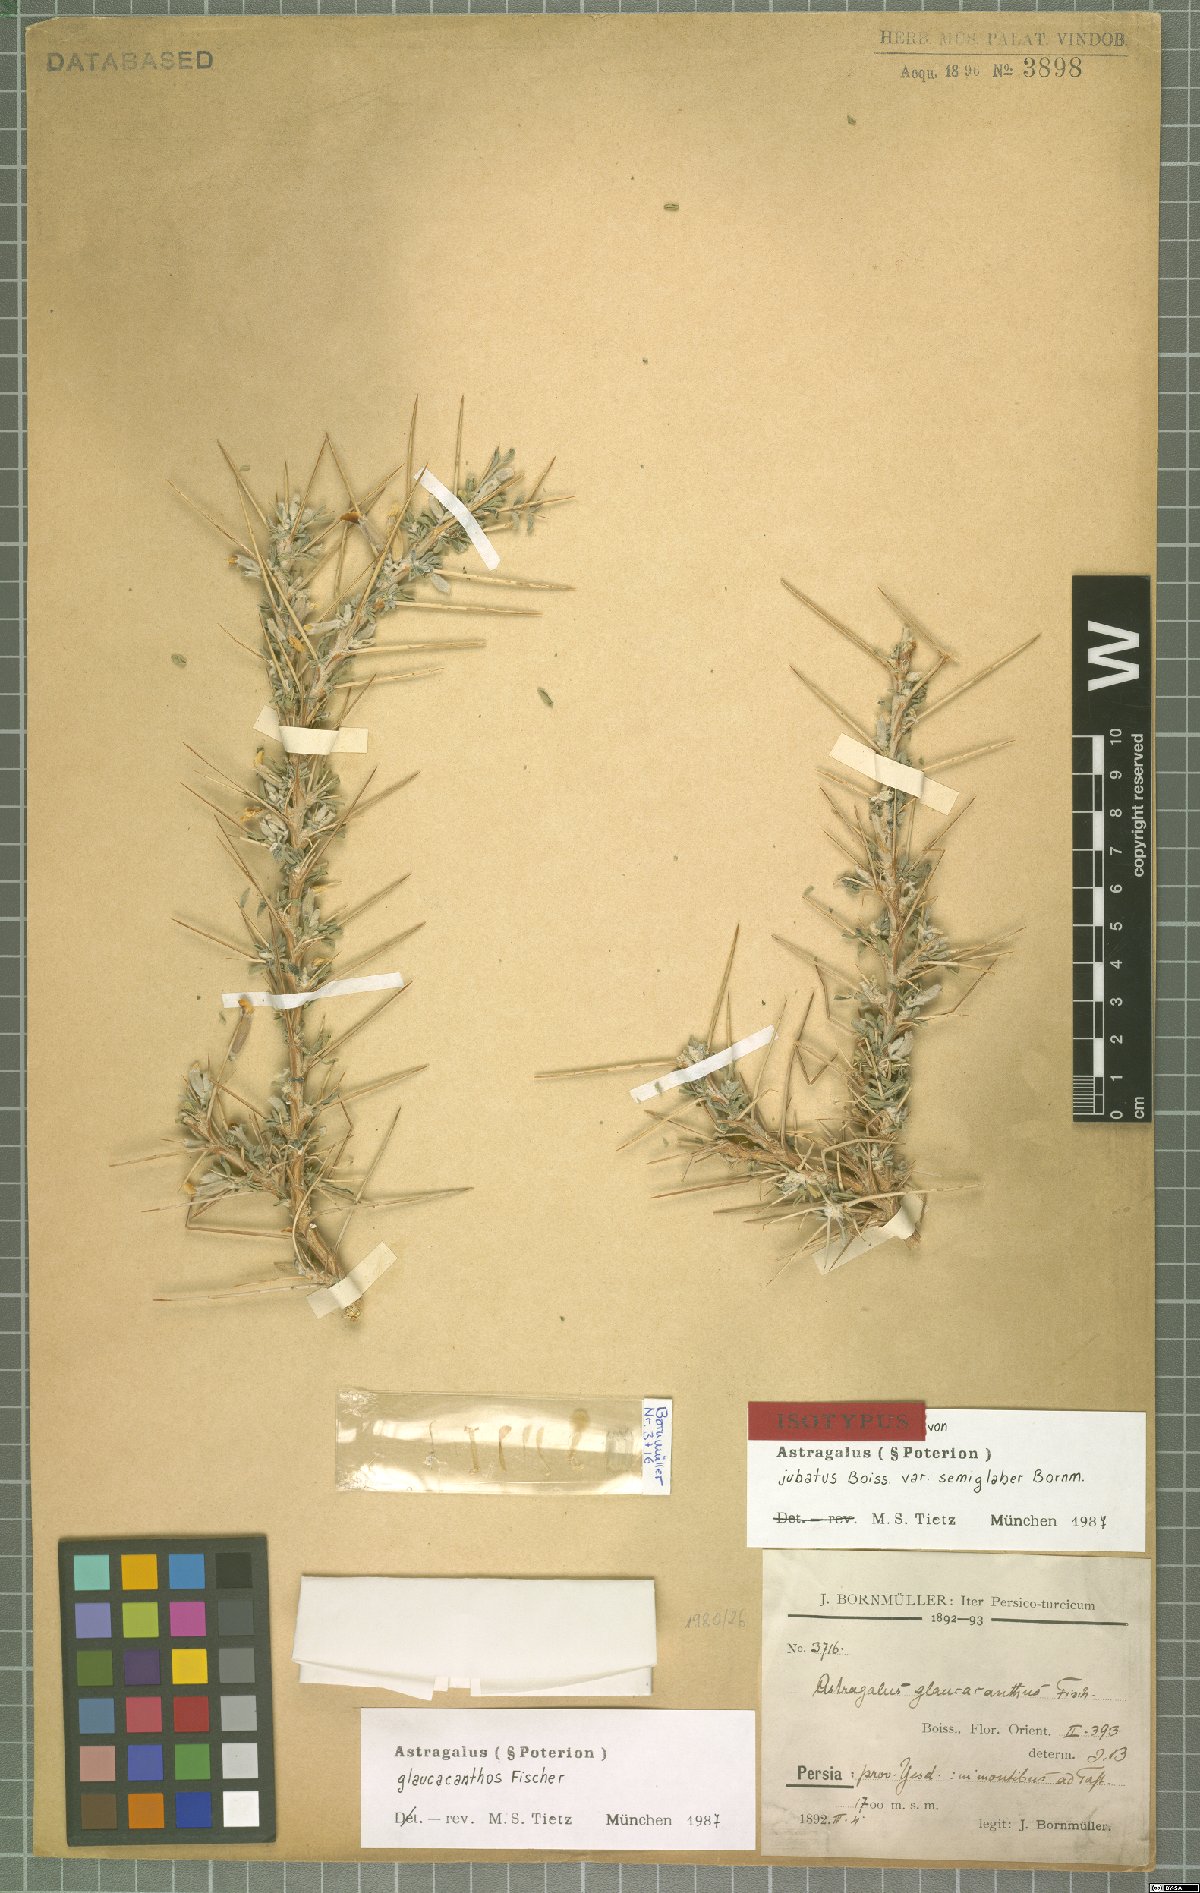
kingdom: Plantae
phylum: Tracheophyta
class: Magnoliopsida
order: Fabales
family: Fabaceae
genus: Astragalus
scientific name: Astragalus glaucacanthos
